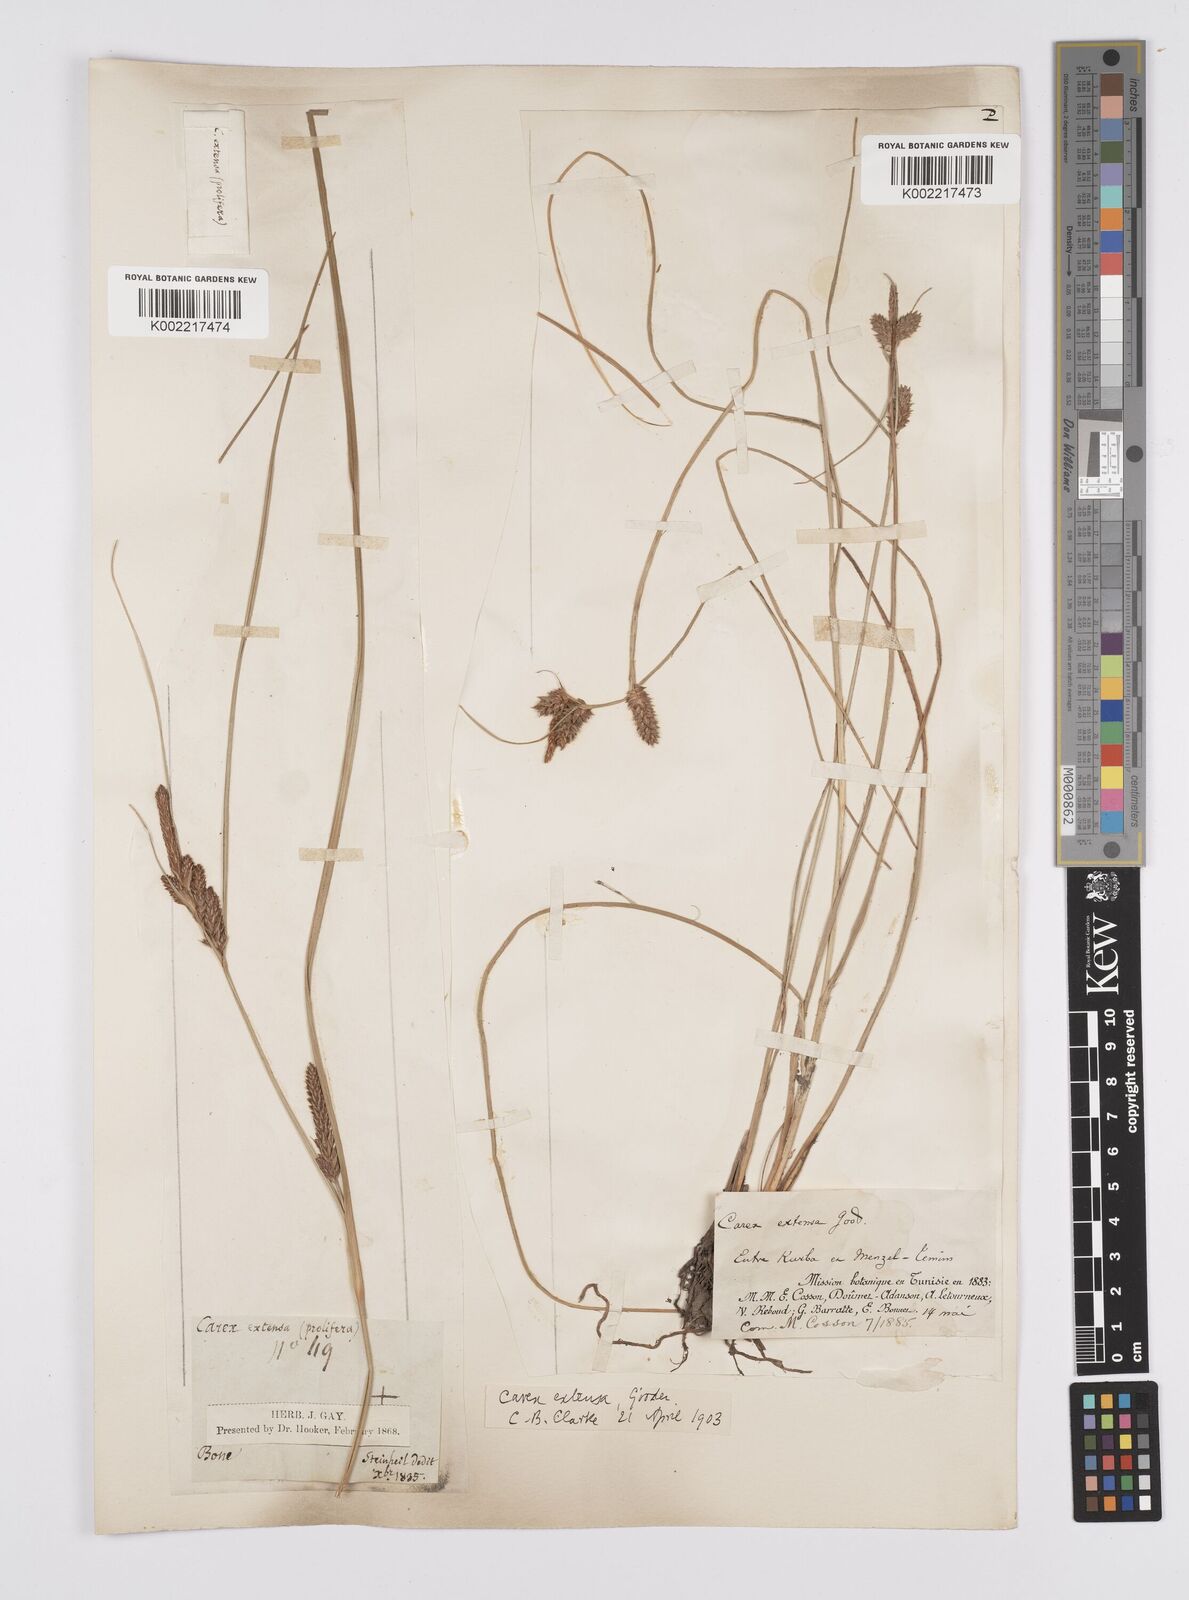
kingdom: Plantae
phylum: Tracheophyta
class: Liliopsida
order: Poales
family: Cyperaceae
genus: Carex
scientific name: Carex extensa
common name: Long-bracted sedge
